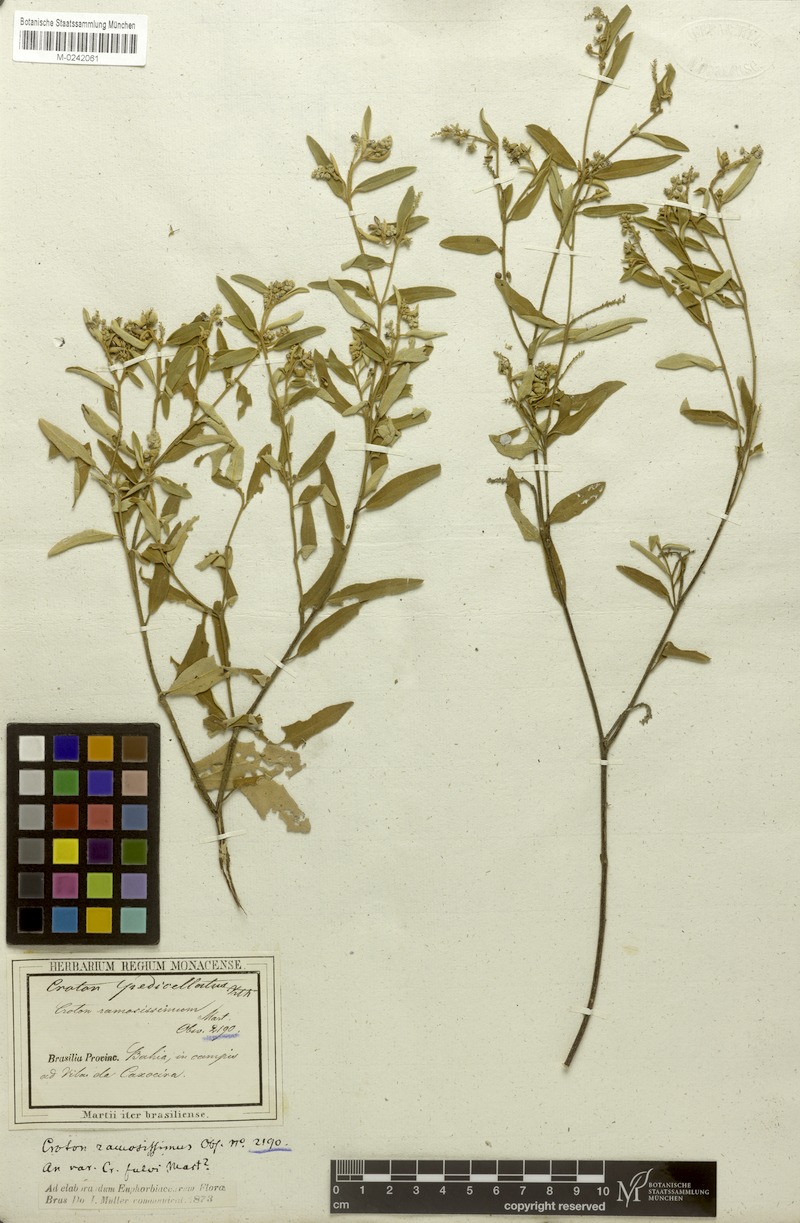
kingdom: Plantae
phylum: Tracheophyta
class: Magnoliopsida
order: Malpighiales
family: Euphorbiaceae
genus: Croton
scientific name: Croton pedicellatus
